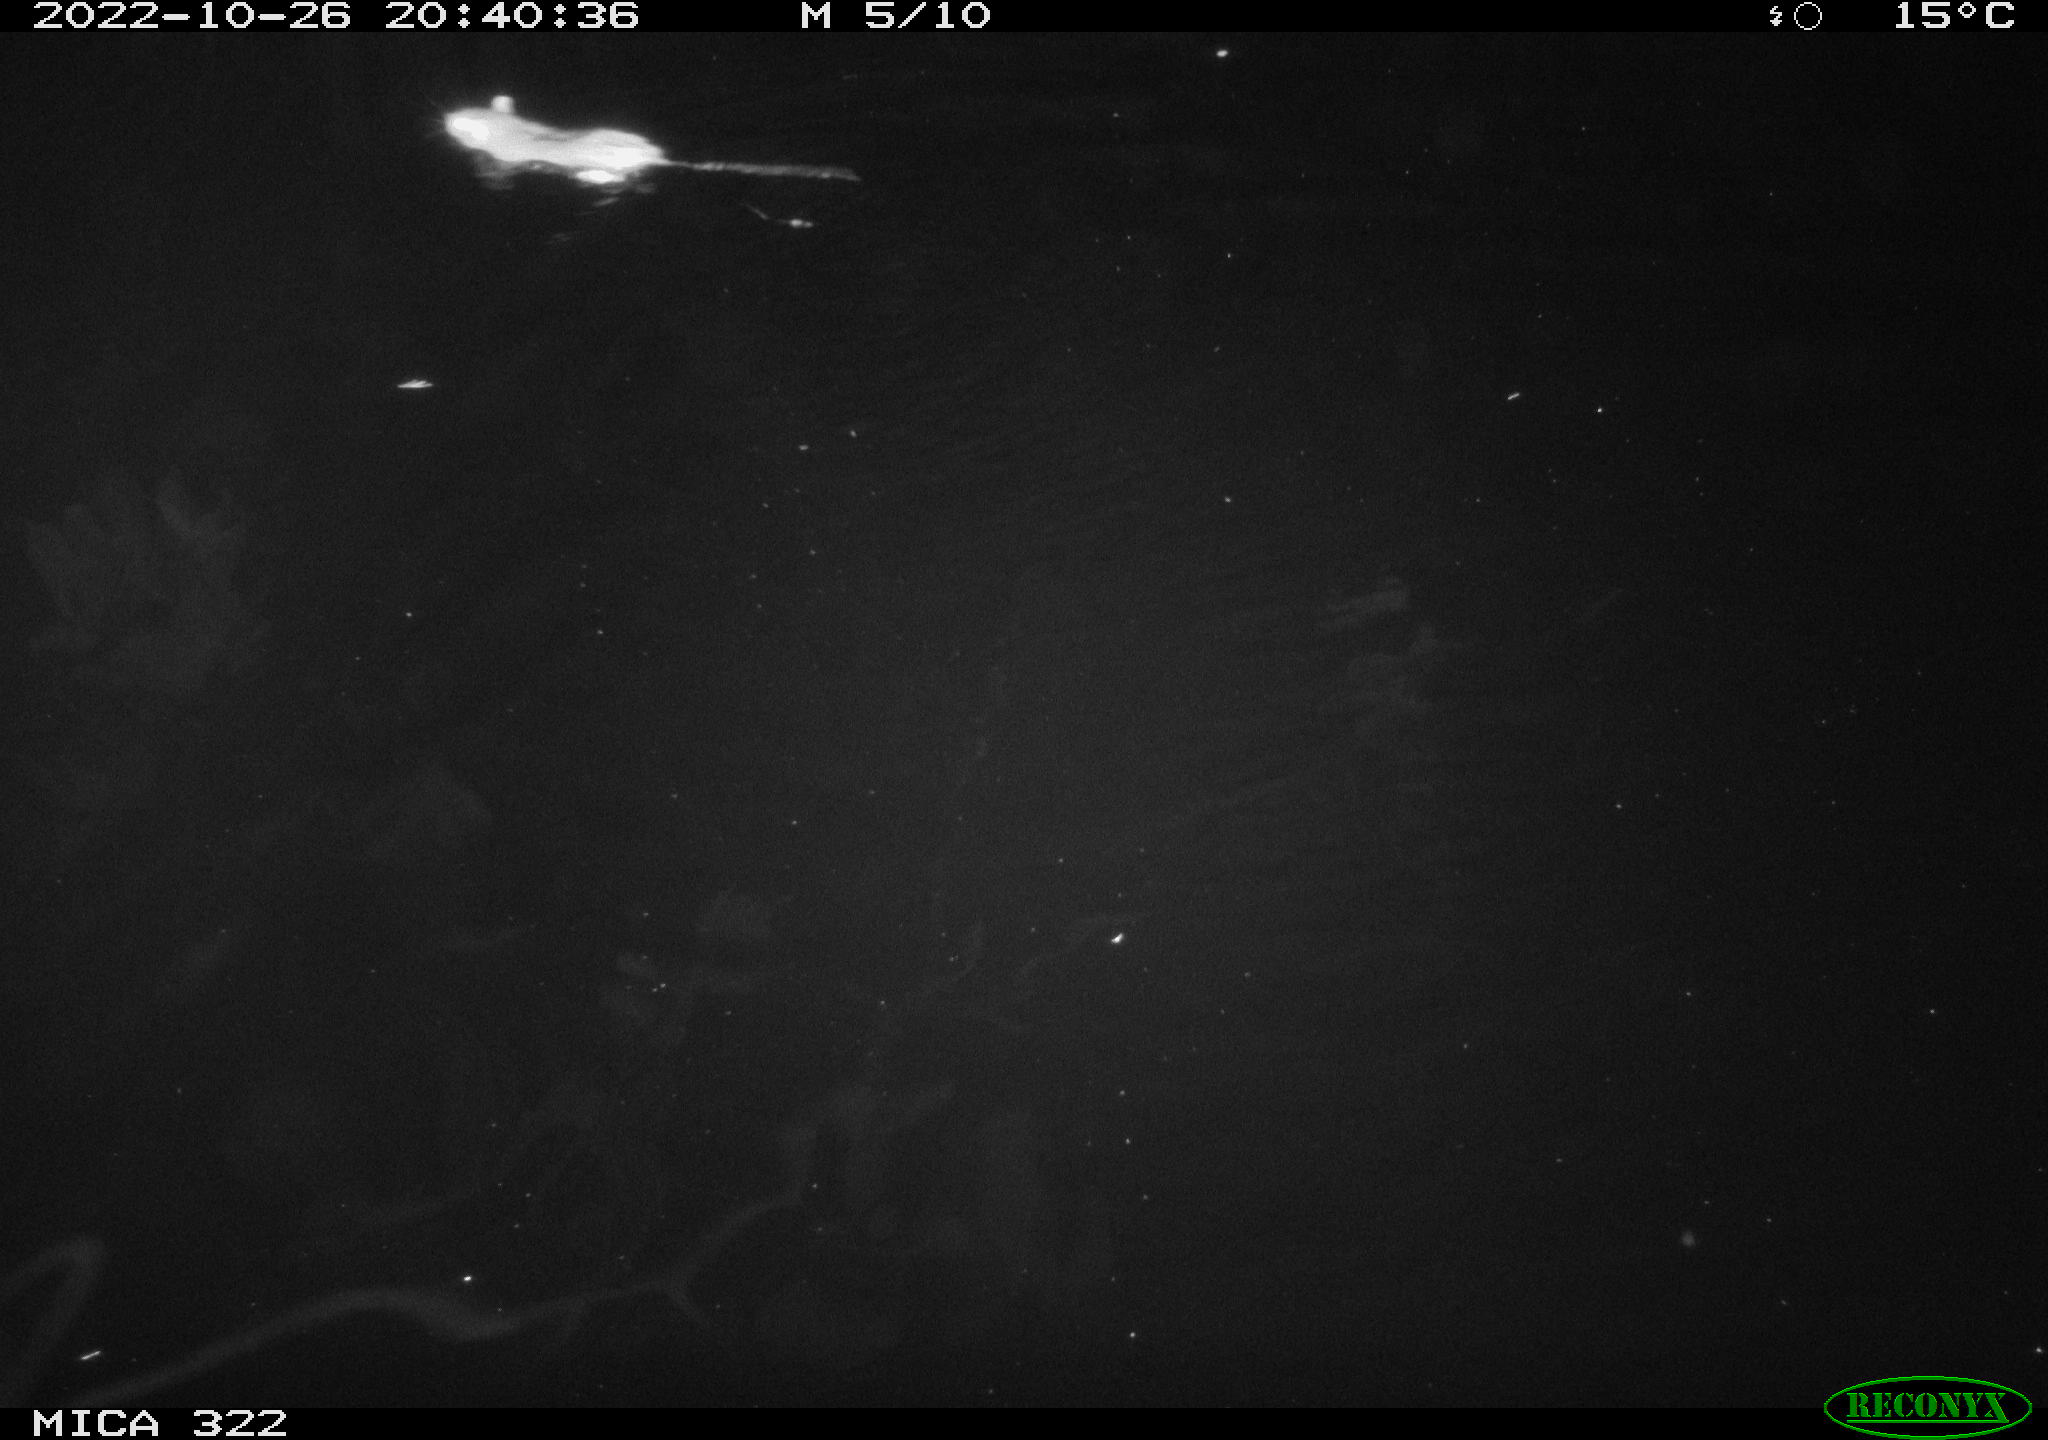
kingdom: Animalia
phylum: Chordata
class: Mammalia
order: Rodentia
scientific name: Rodentia
